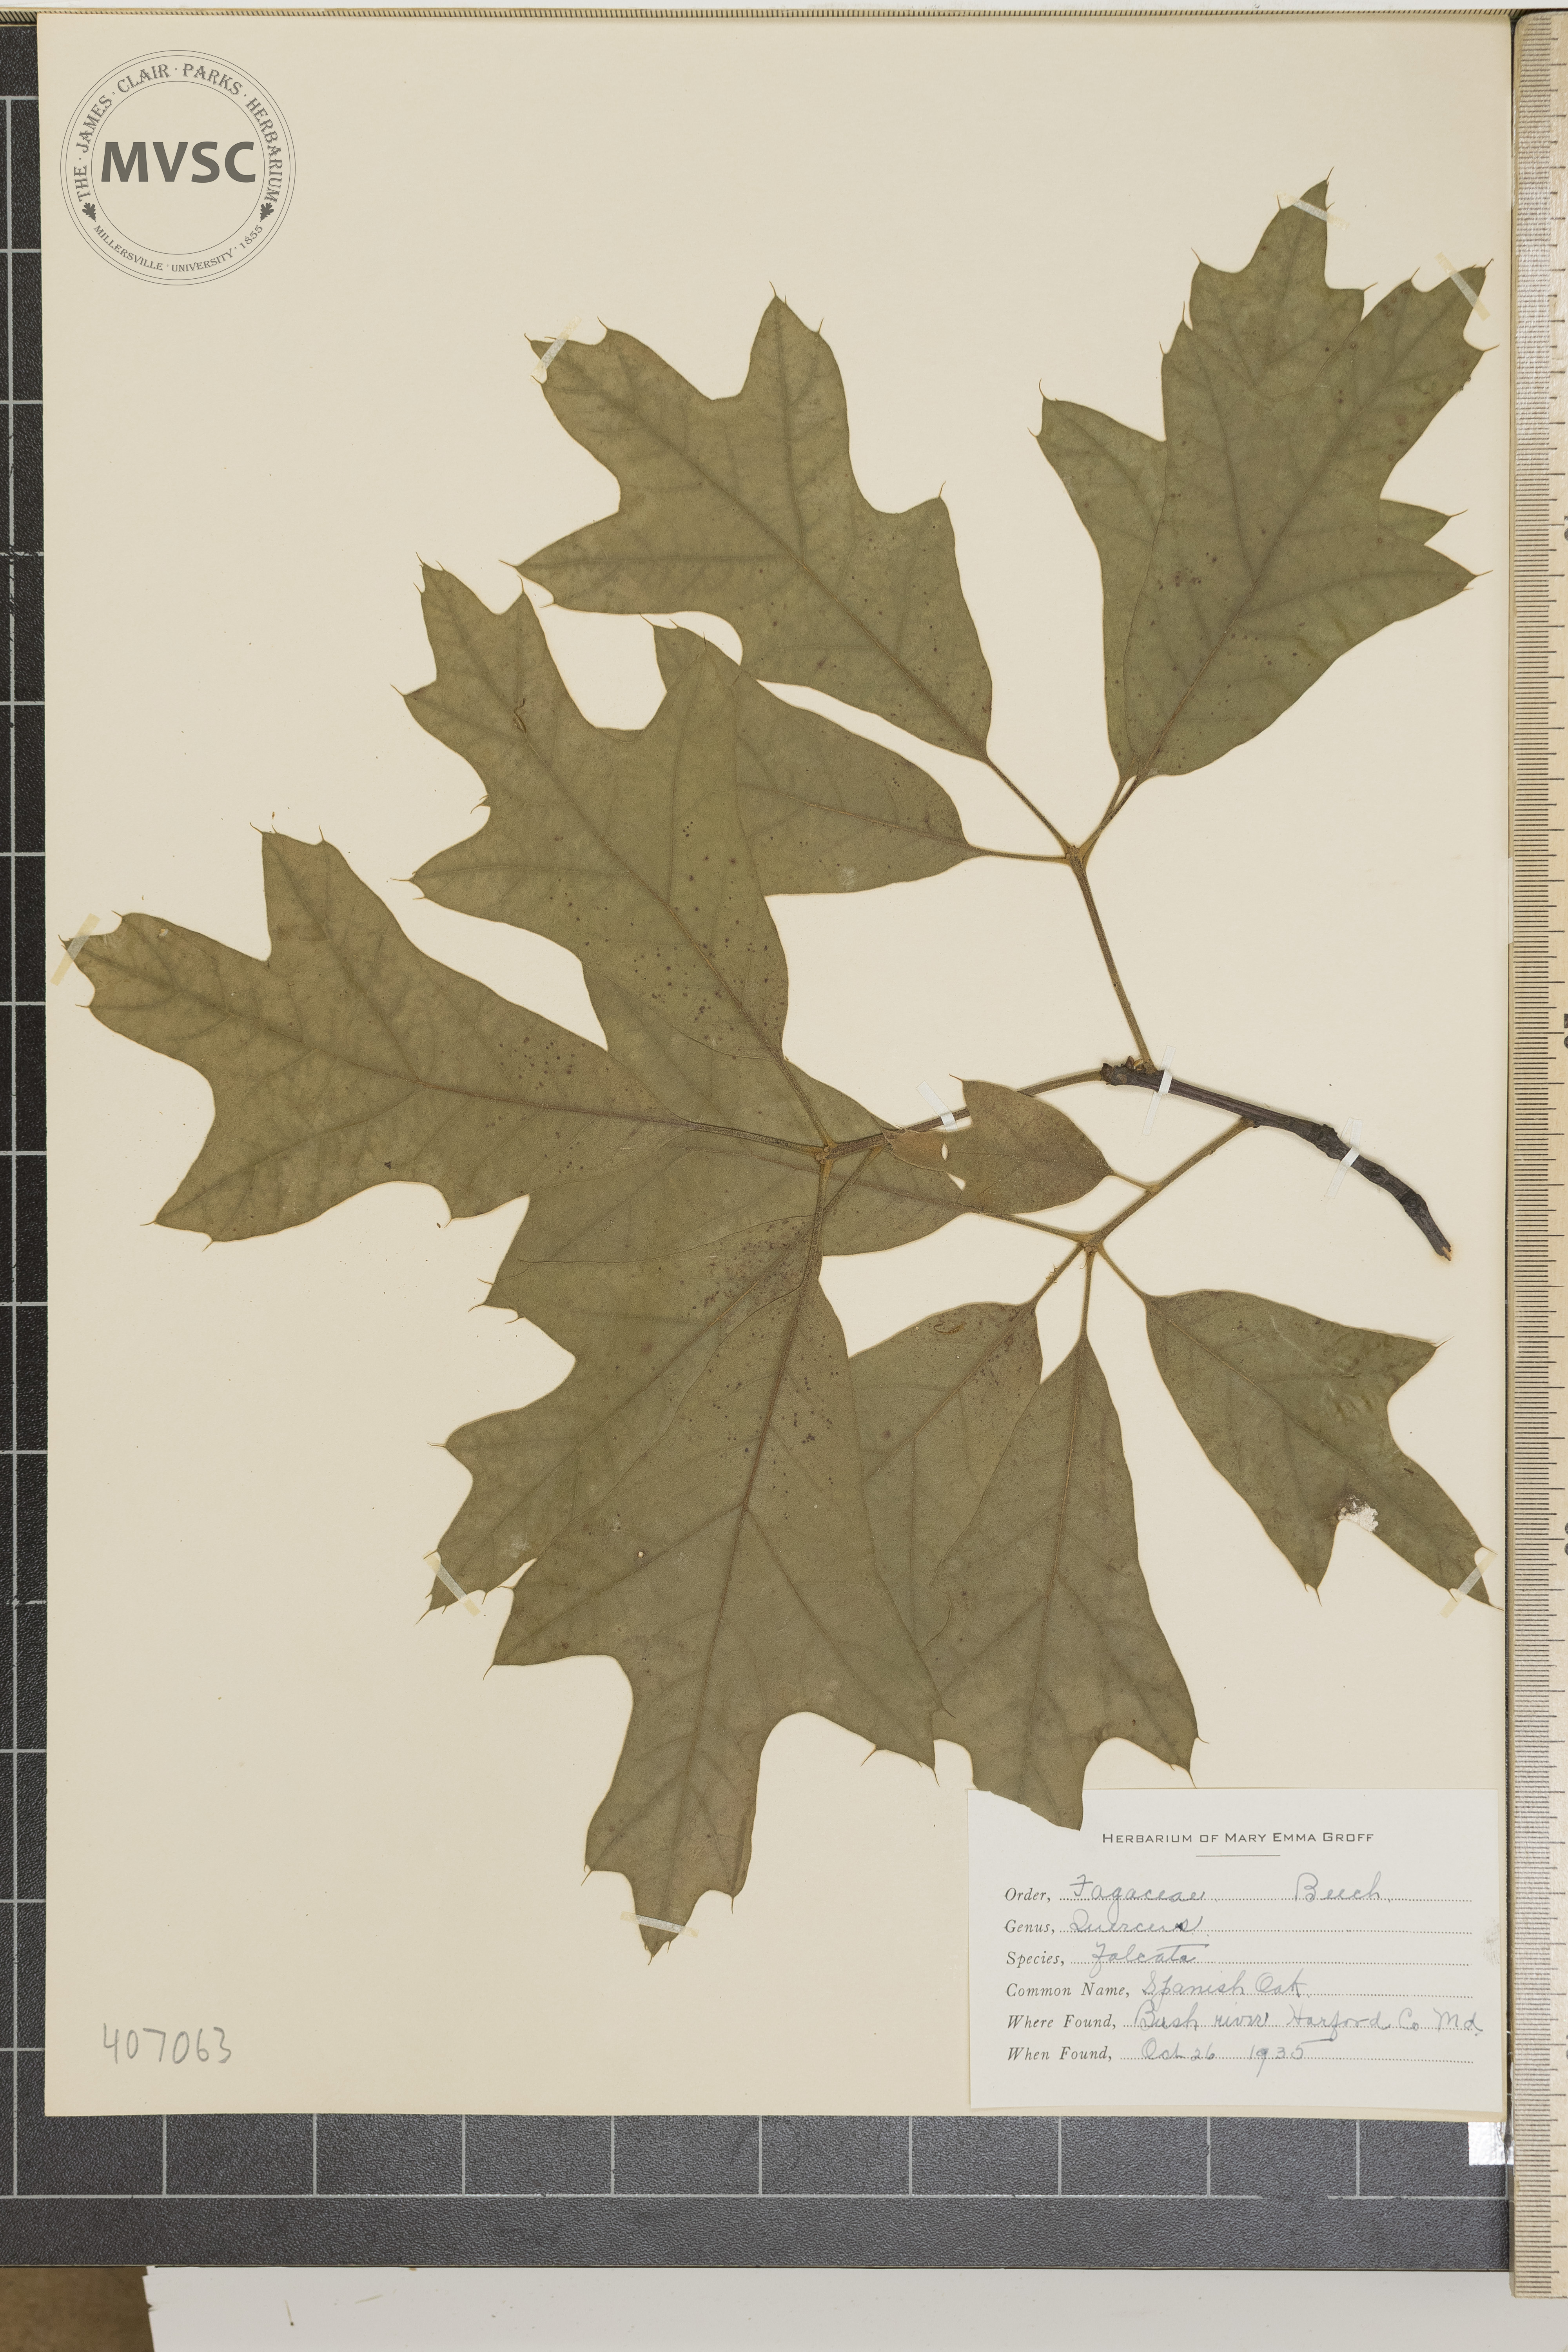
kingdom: Plantae
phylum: Tracheophyta
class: Magnoliopsida
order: Fagales
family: Fagaceae
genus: Quercus
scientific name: Quercus falcata
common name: Southern red oak
